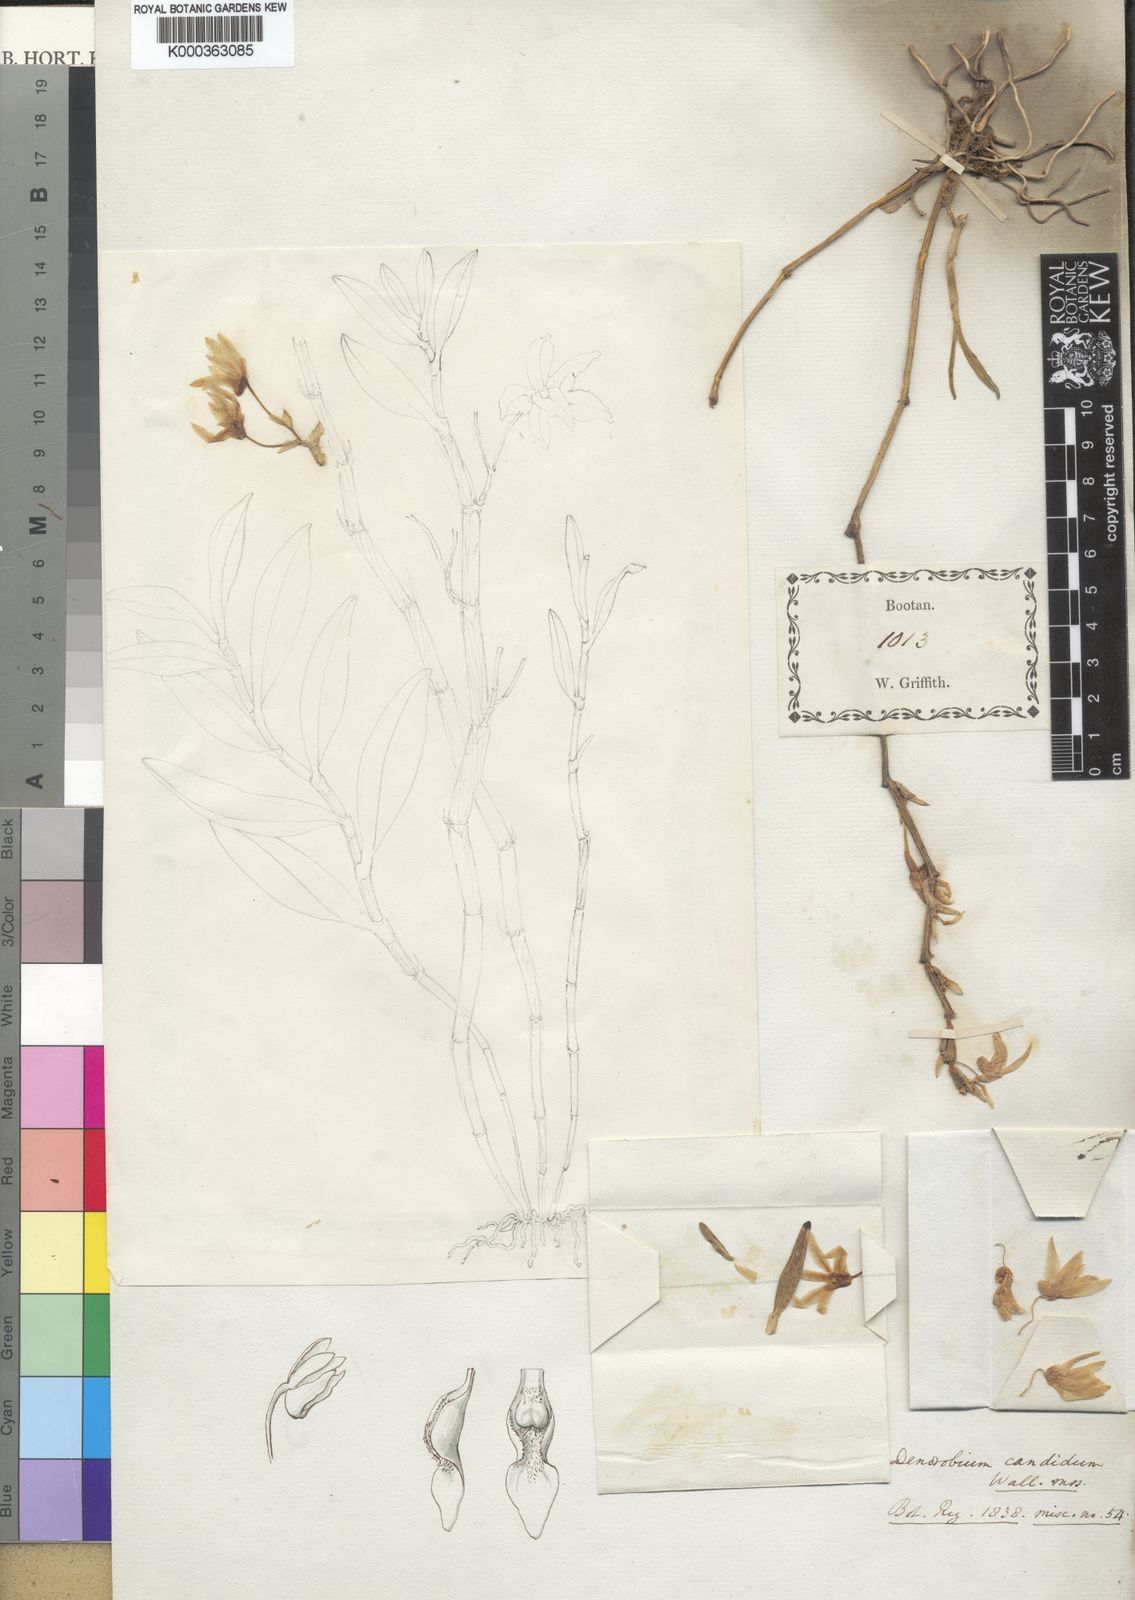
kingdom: Plantae
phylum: Tracheophyta
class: Liliopsida
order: Asparagales
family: Orchidaceae
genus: Dendrobium
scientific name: Dendrobium moniliforme
